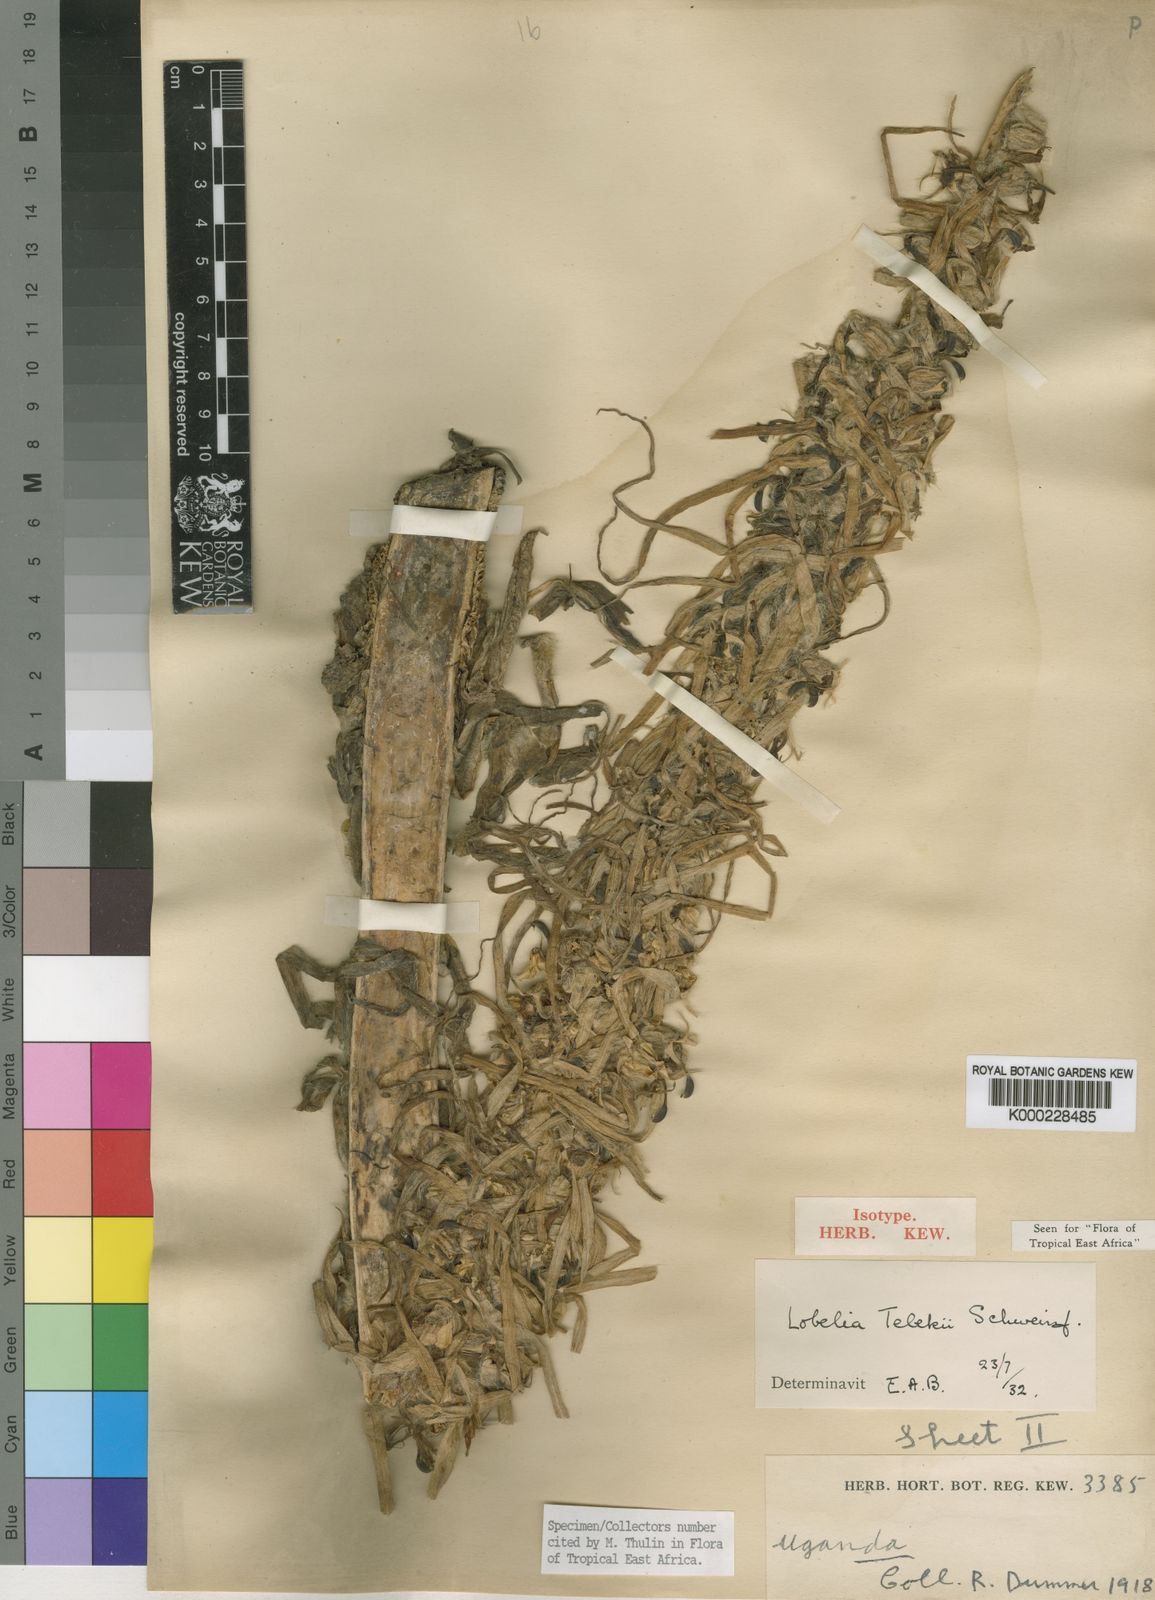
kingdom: Plantae
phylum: Tracheophyta
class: Magnoliopsida
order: Asterales
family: Campanulaceae
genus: Lobelia
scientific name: Lobelia telekii
